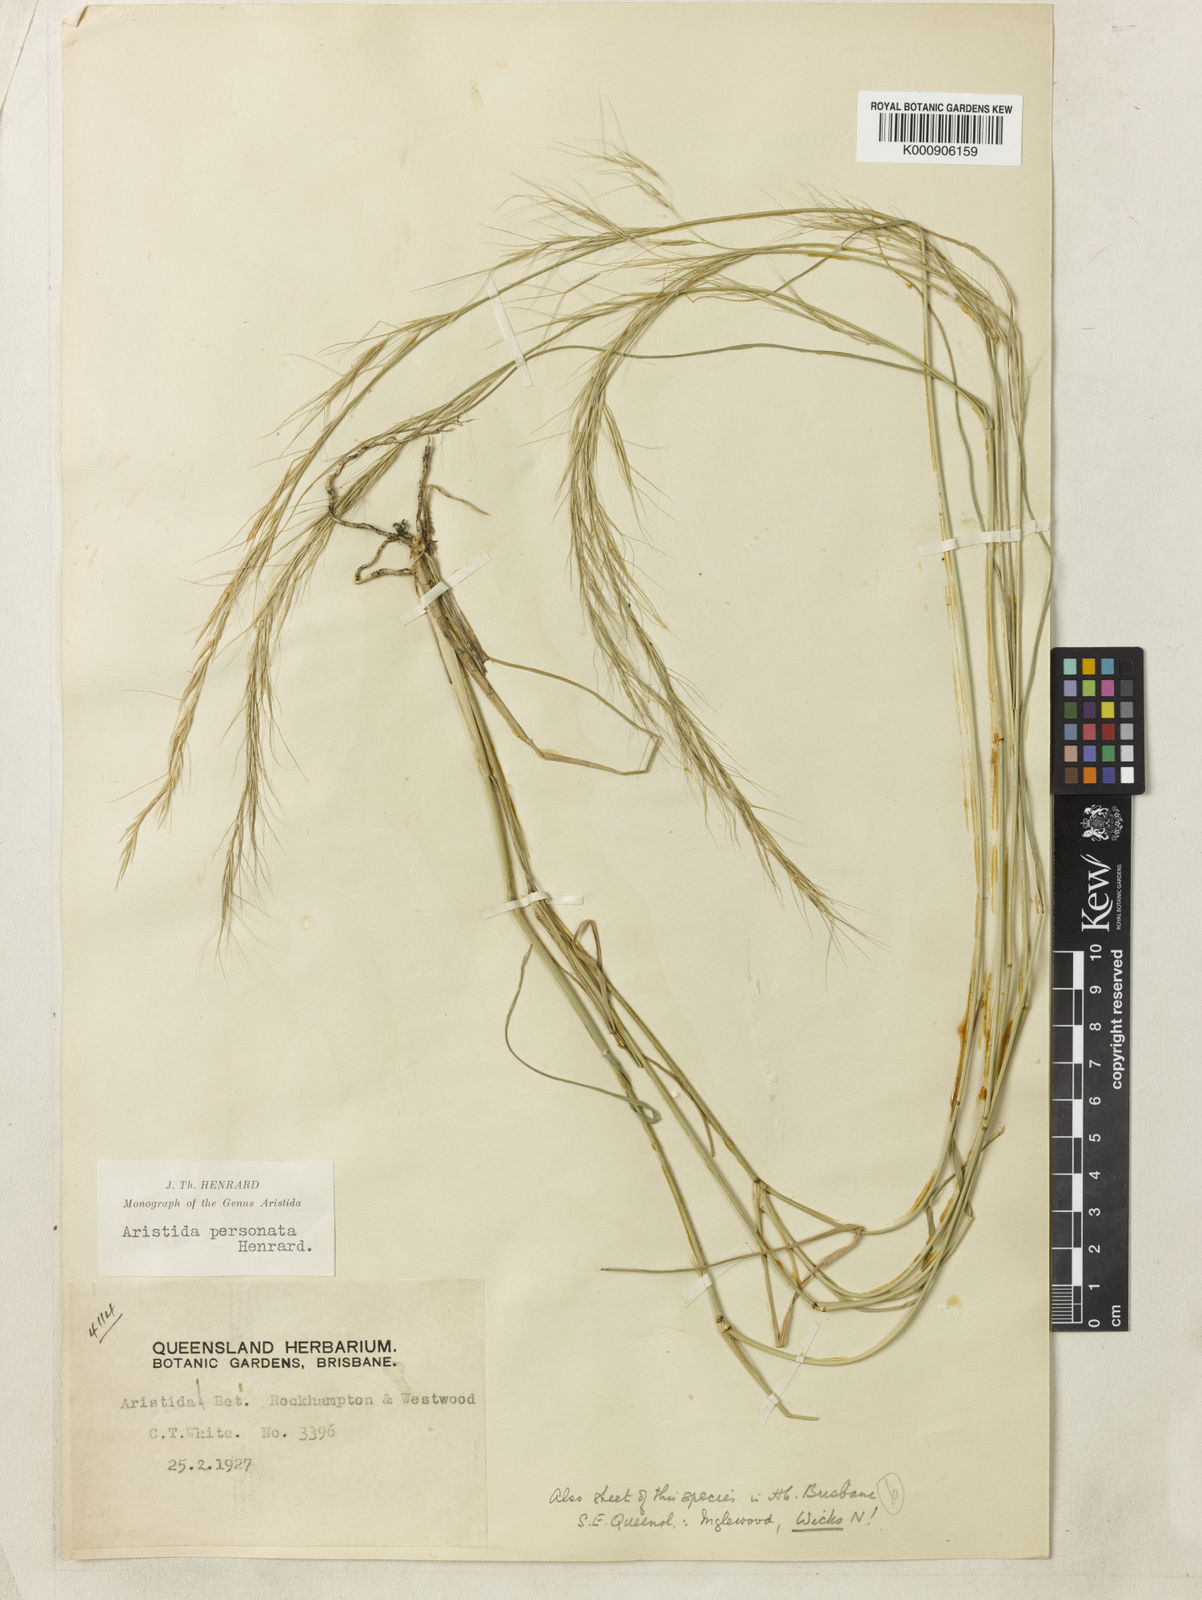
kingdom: Plantae
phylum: Tracheophyta
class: Liliopsida
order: Poales
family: Poaceae
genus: Aristida
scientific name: Aristida personata
